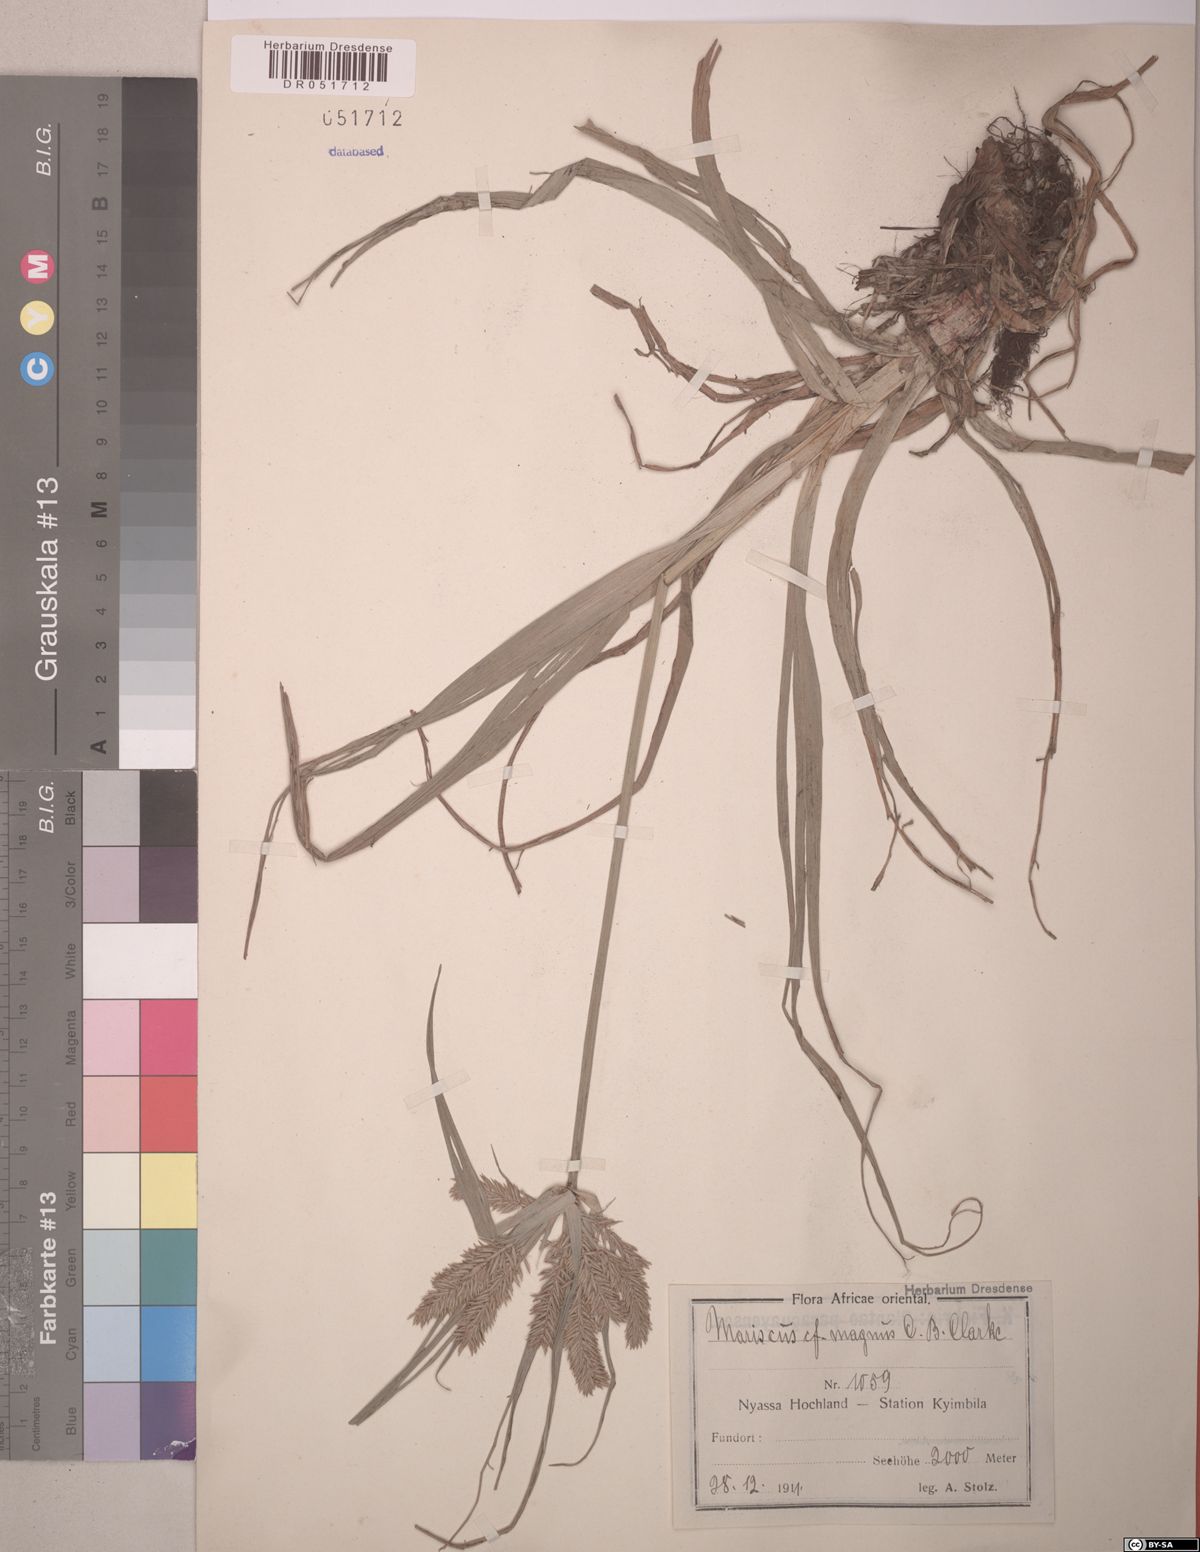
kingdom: Plantae
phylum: Tracheophyta
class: Liliopsida
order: Poales
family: Cyperaceae
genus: Cyperus
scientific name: Cyperus tomaiophyllus
